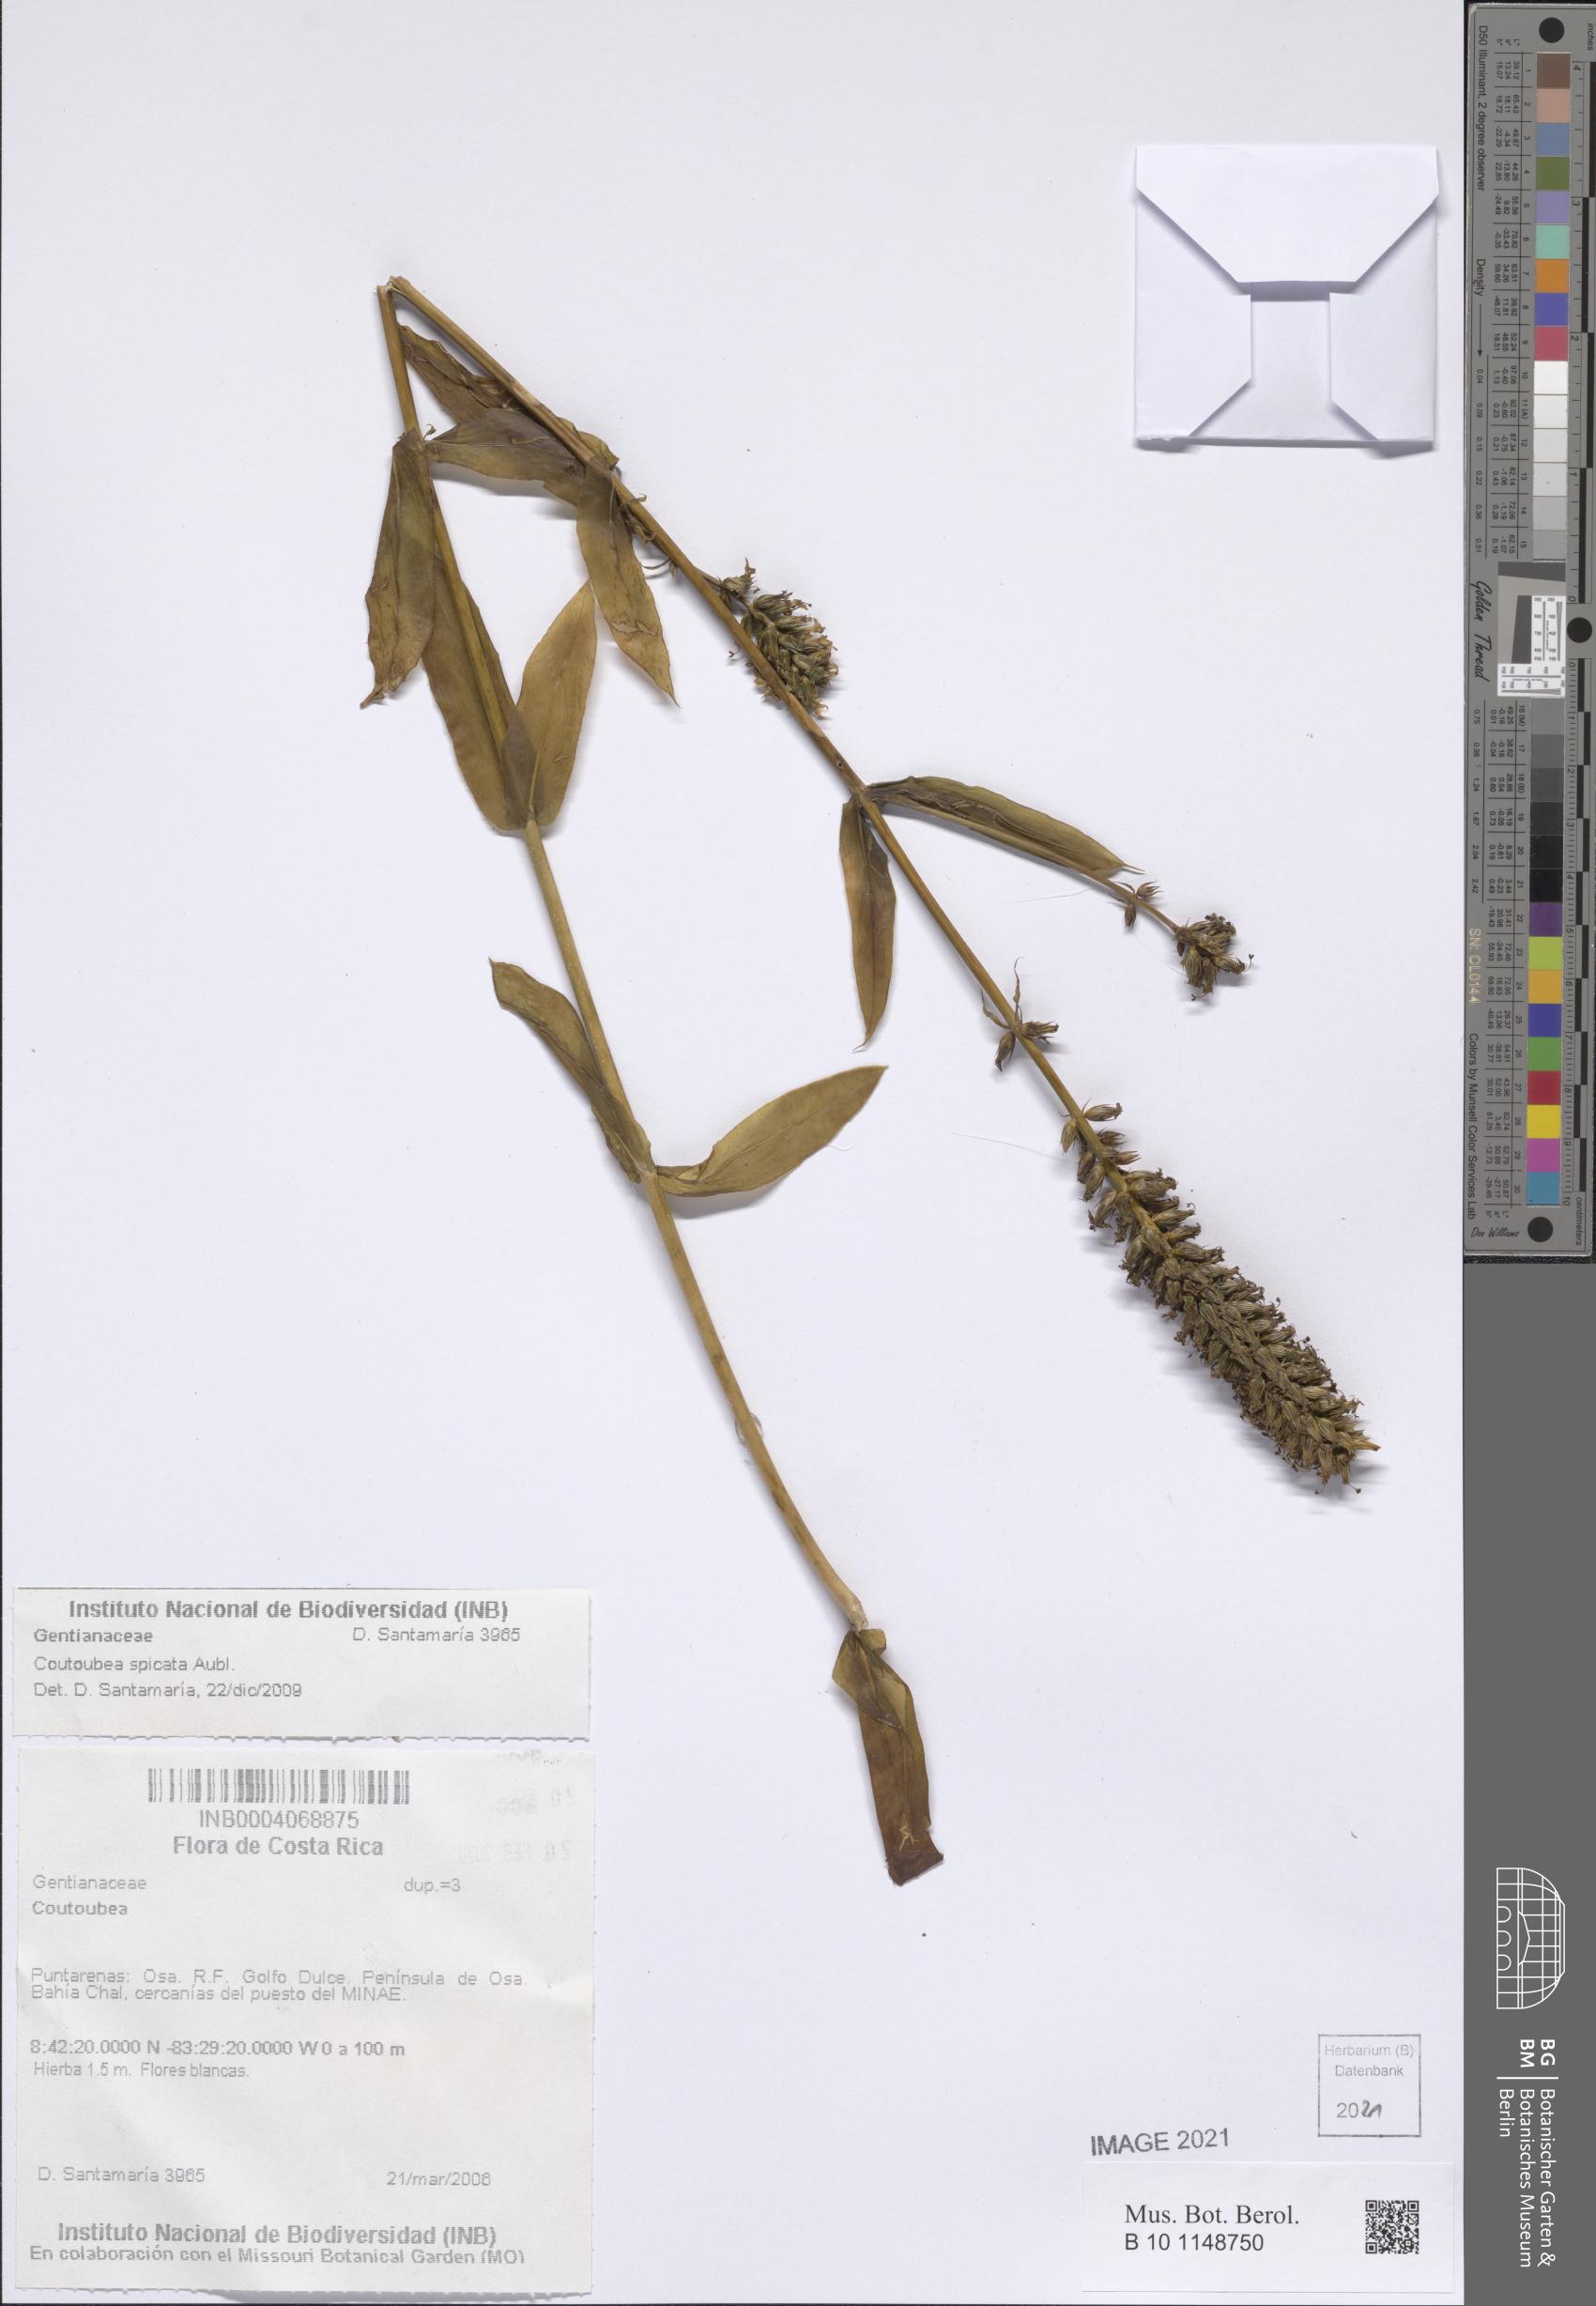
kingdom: Plantae
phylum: Tracheophyta
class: Magnoliopsida
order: Gentianales
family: Gentianaceae
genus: Coutoubea
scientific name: Coutoubea spicata
